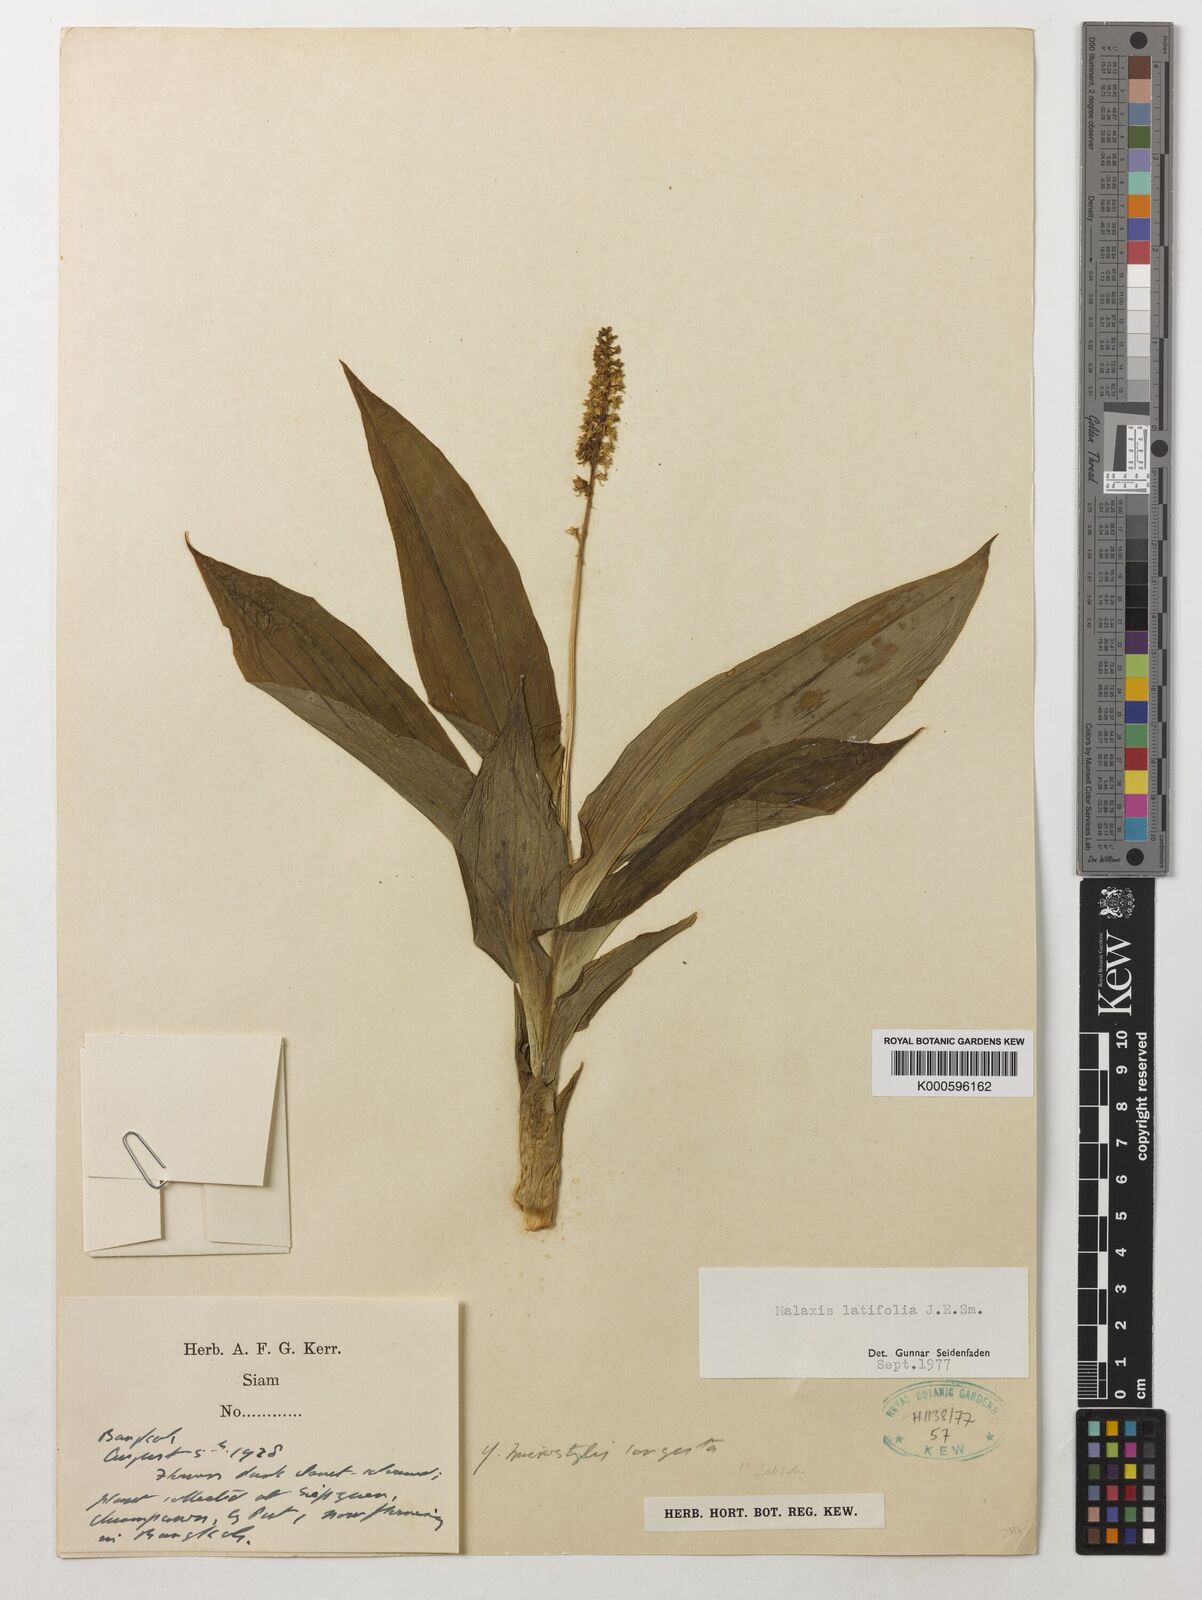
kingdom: Plantae
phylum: Tracheophyta
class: Liliopsida
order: Asparagales
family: Orchidaceae
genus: Dienia
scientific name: Dienia ophrydis
